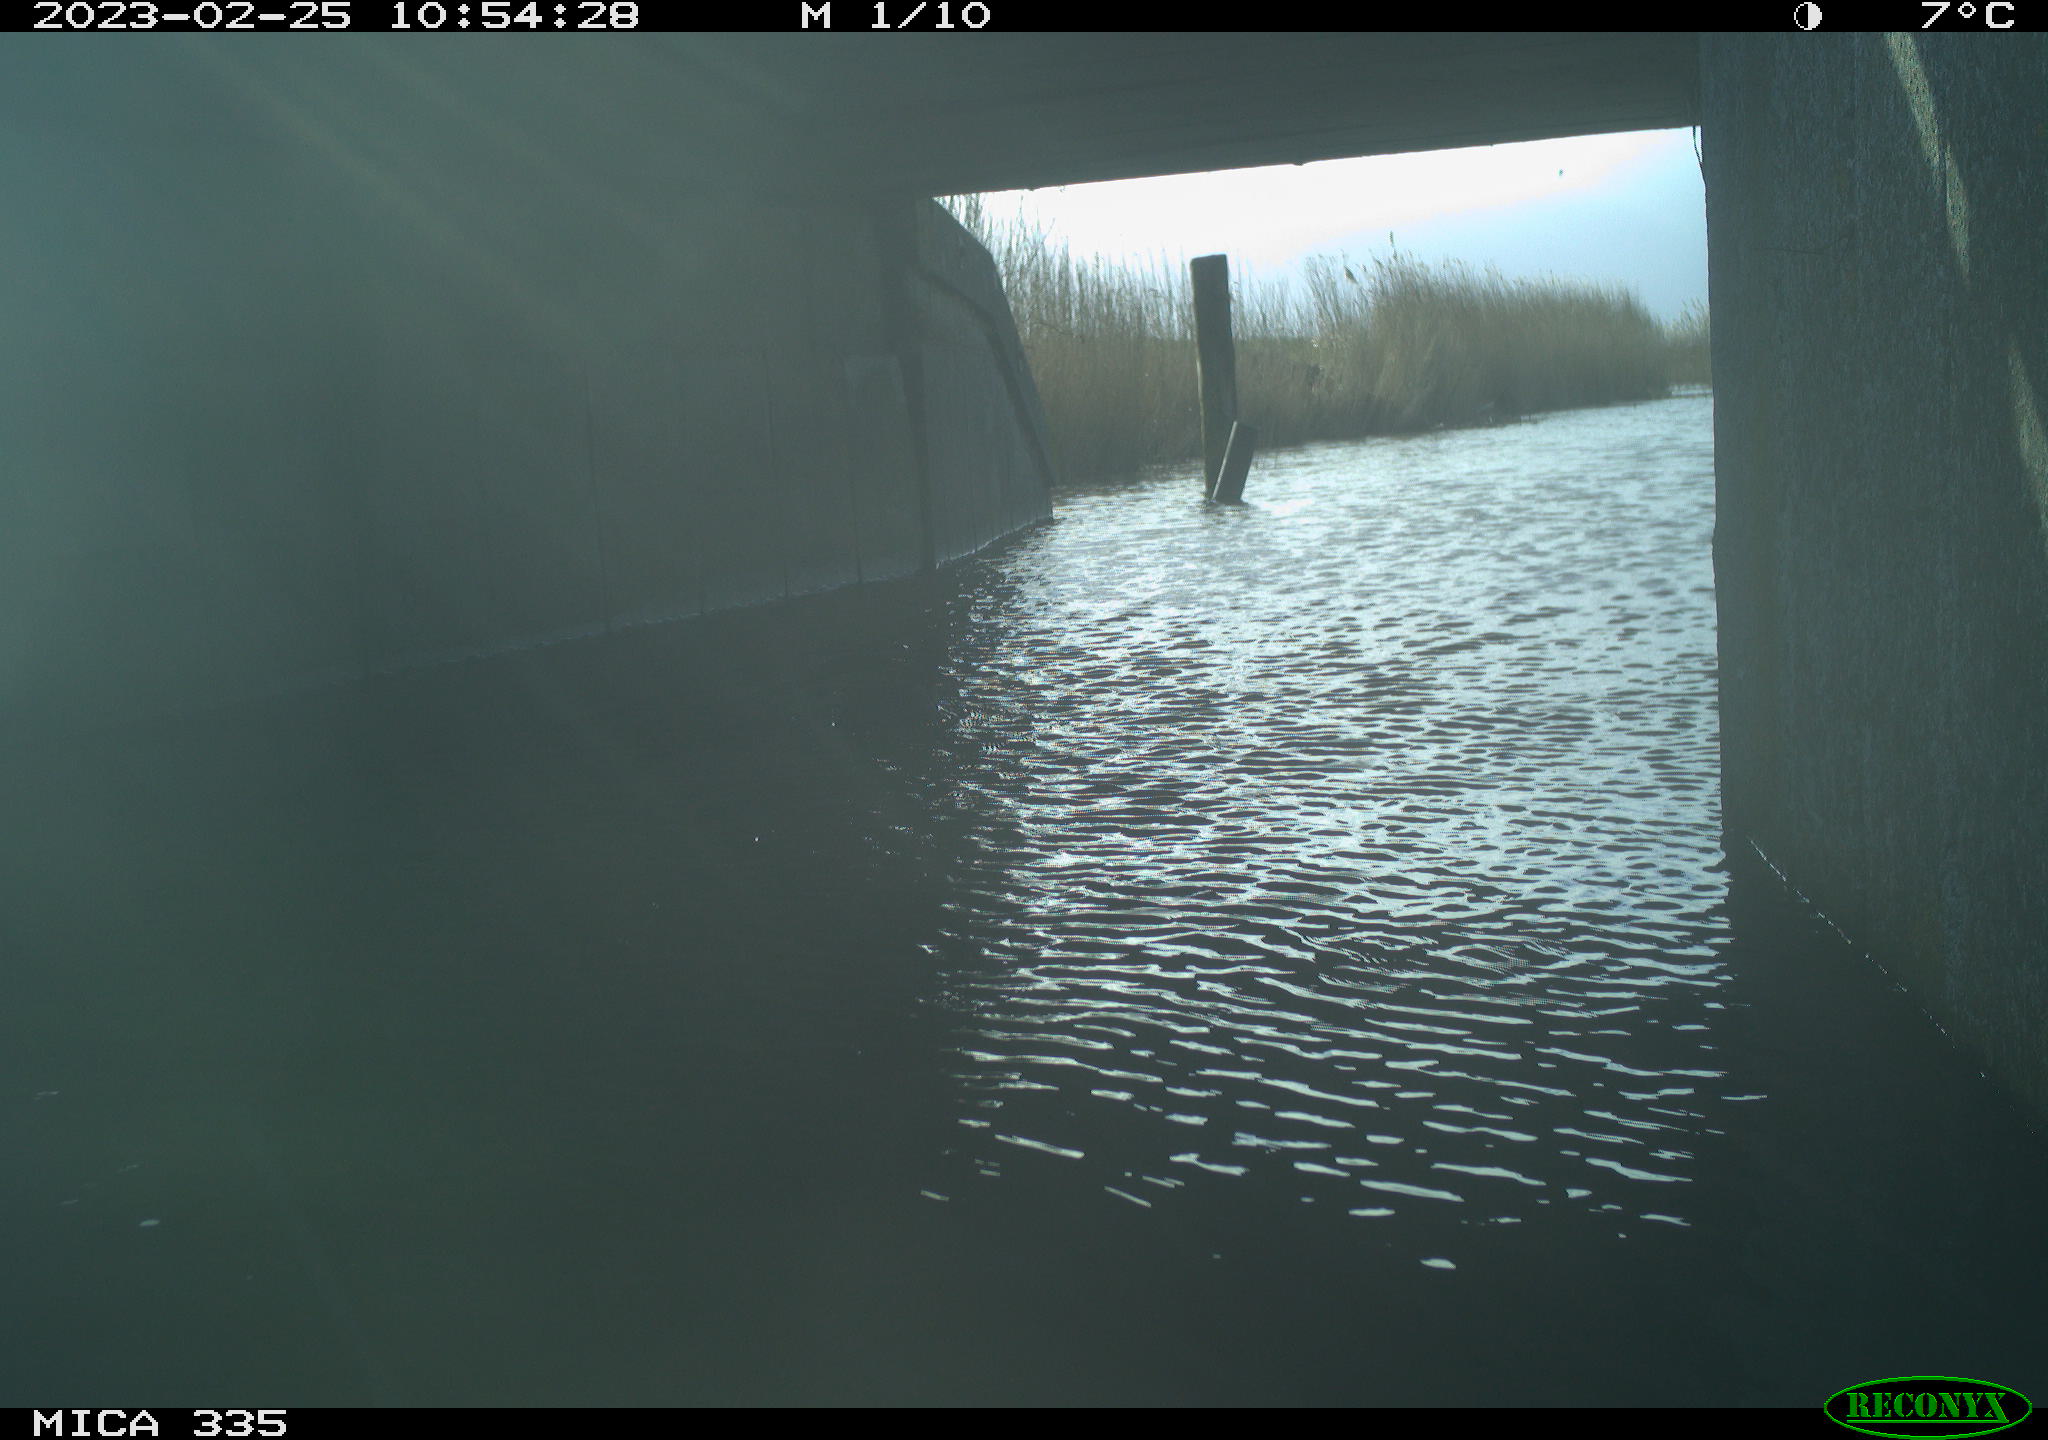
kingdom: Animalia
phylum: Chordata
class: Aves
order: Gruiformes
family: Rallidae
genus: Fulica
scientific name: Fulica atra
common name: Eurasian coot
